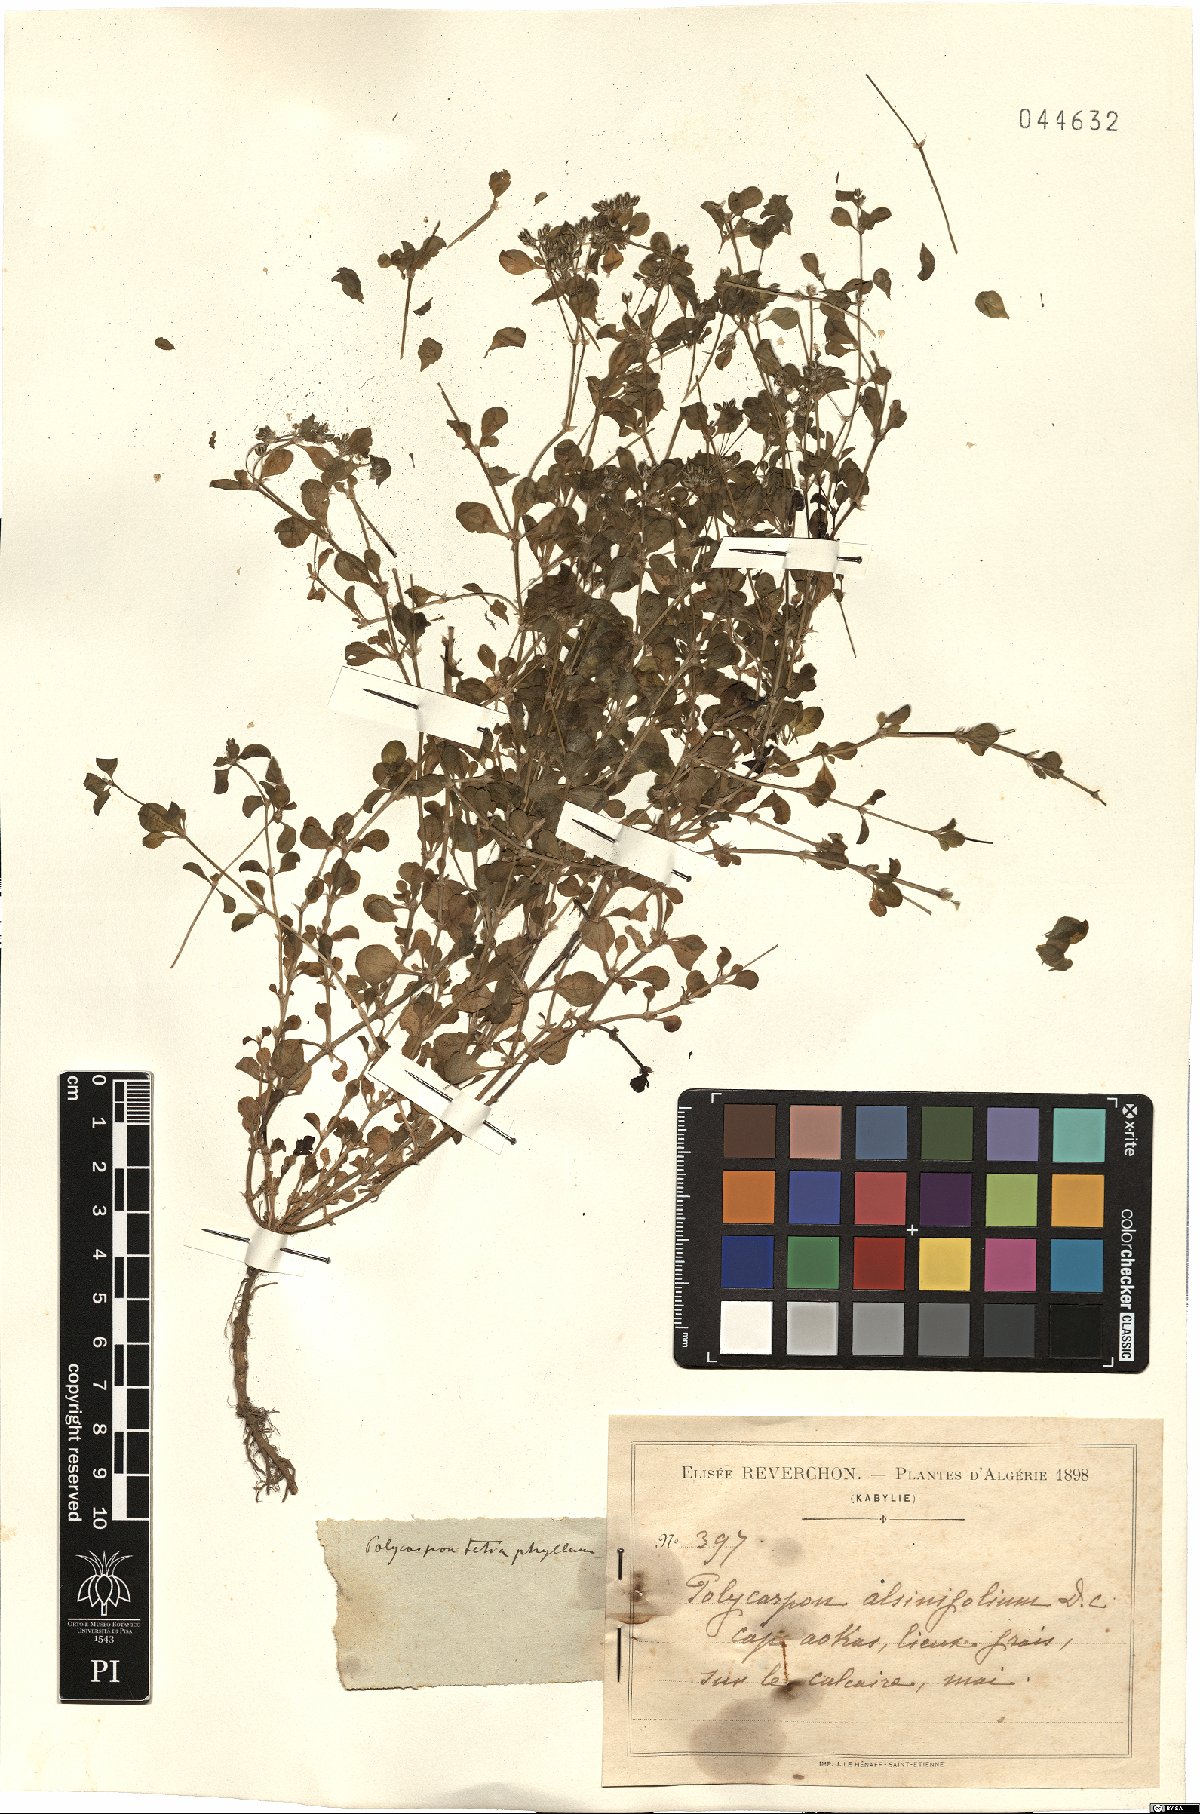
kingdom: Plantae
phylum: Tracheophyta
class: Magnoliopsida
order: Caryophyllales
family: Caryophyllaceae
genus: Polycarpon
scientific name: Polycarpon tetraphyllum
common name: Four-leaved all-seed
